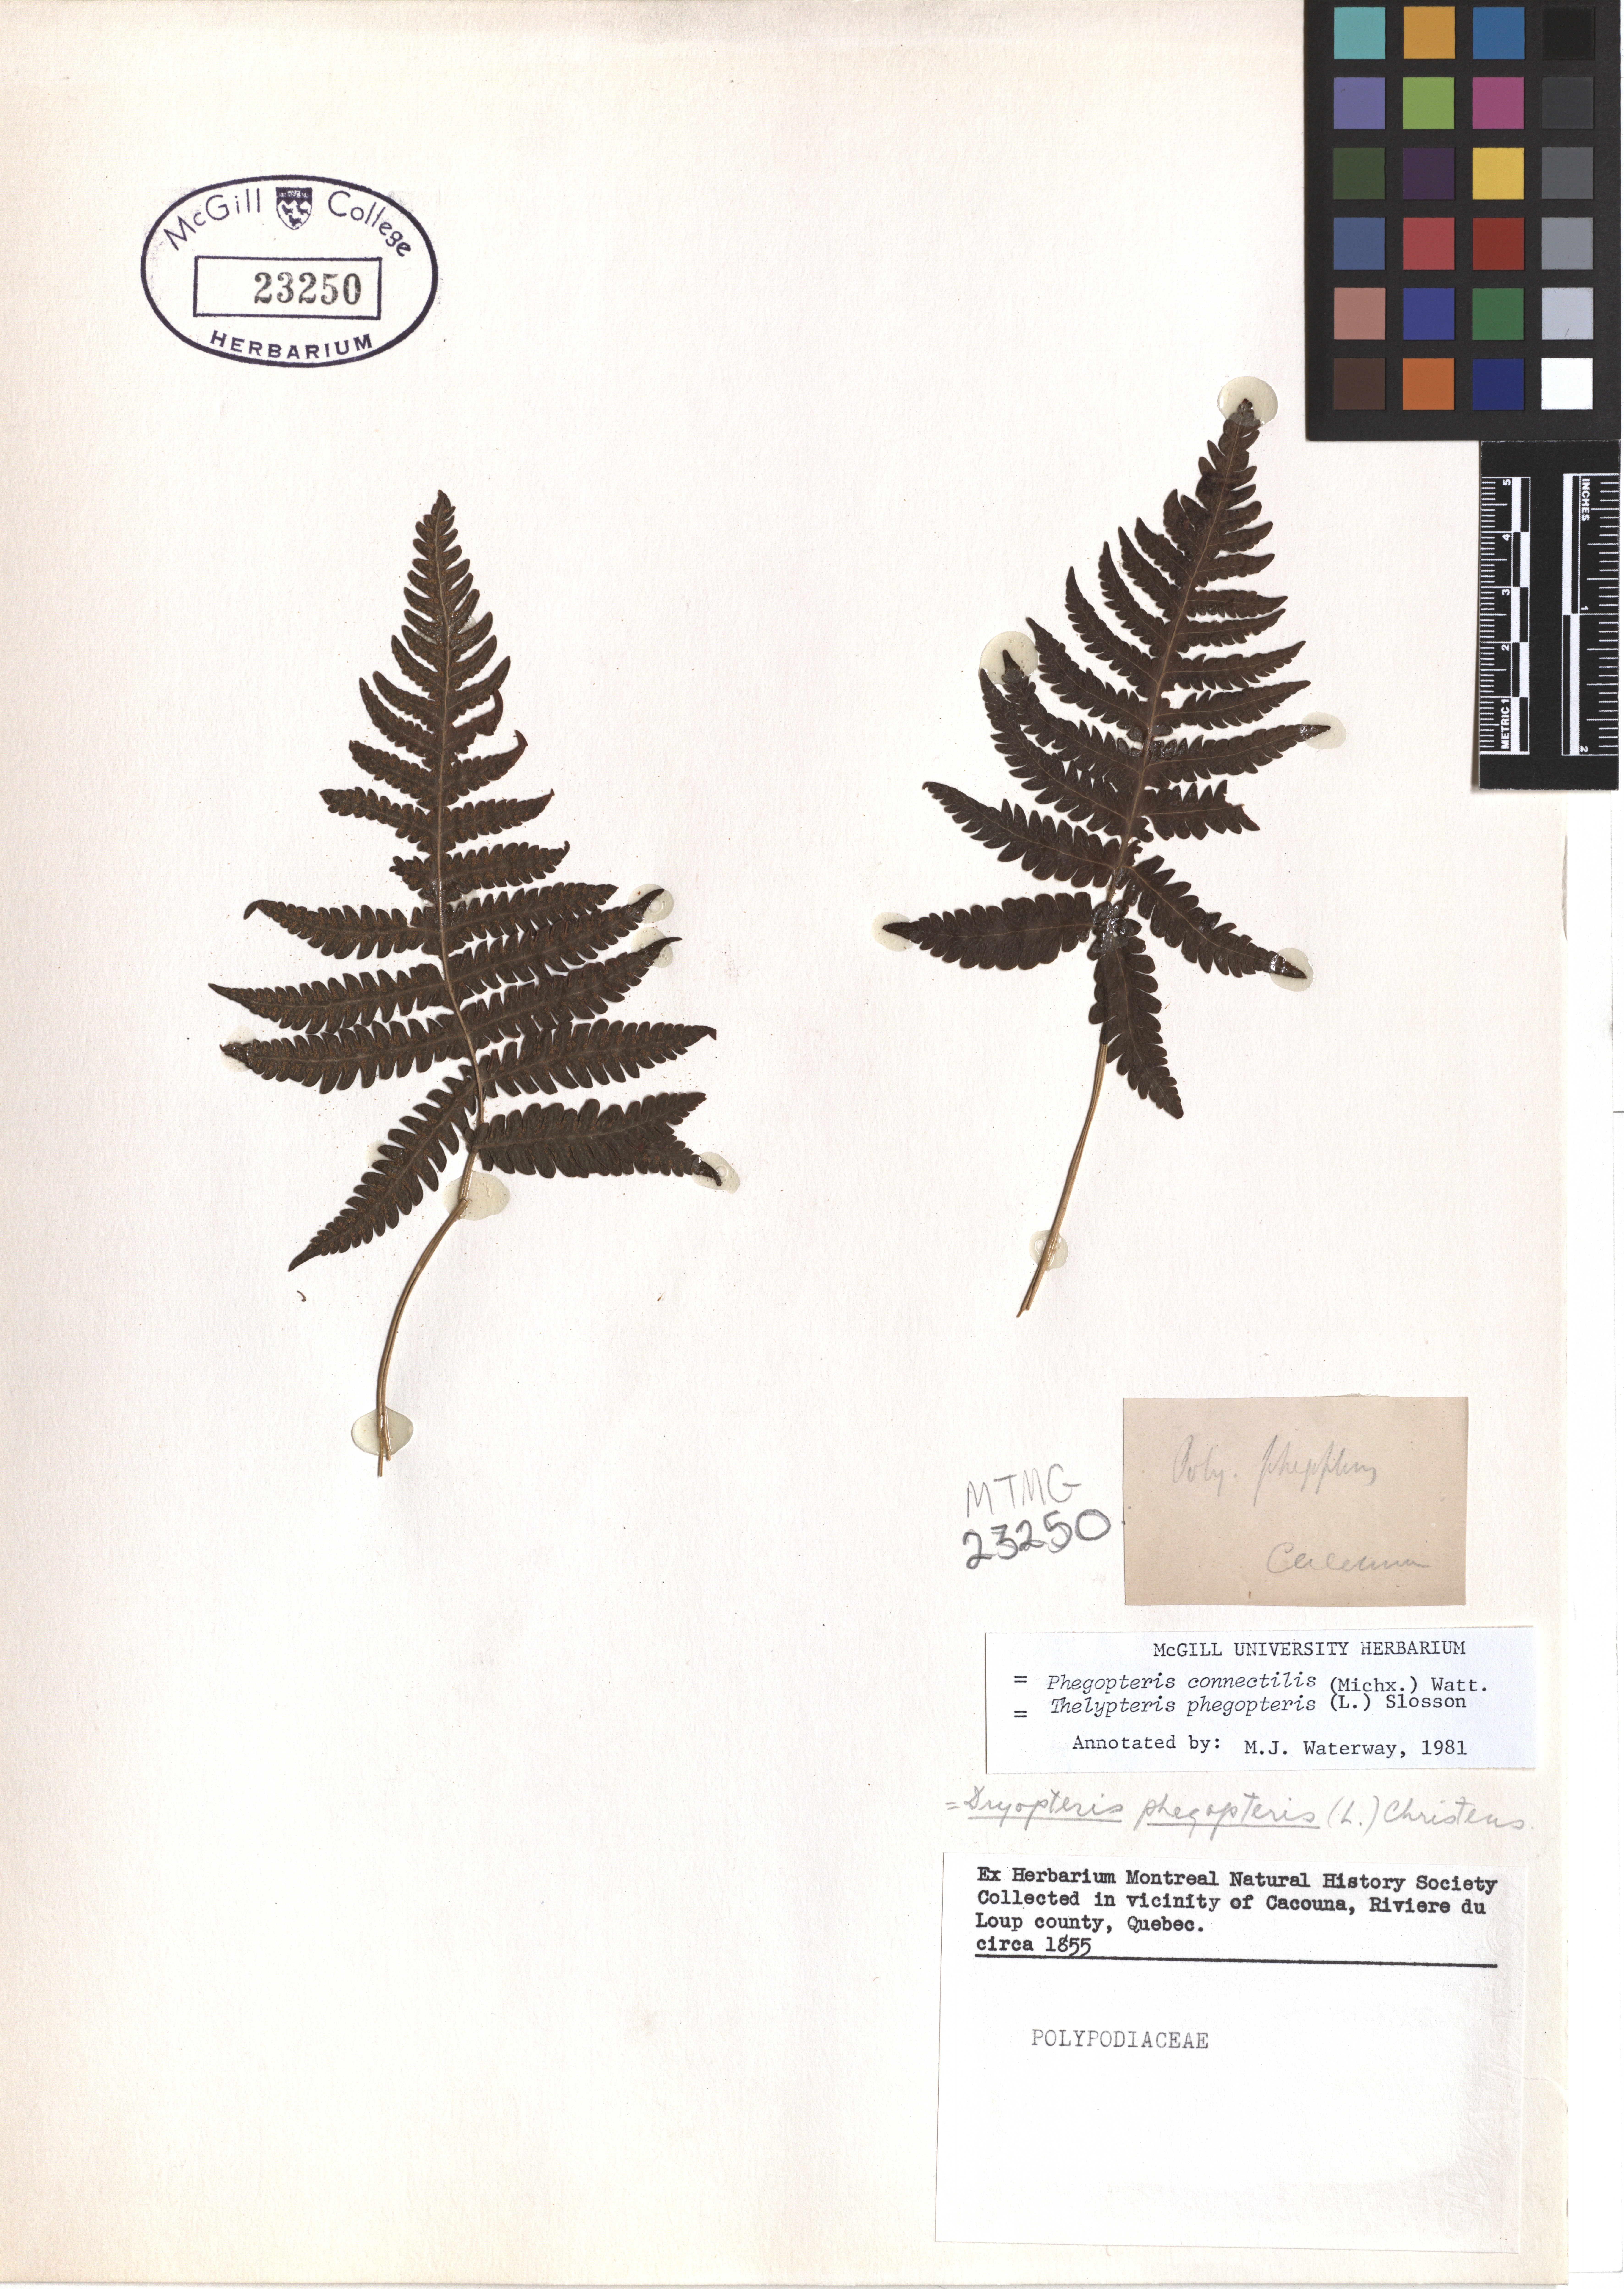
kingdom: Plantae
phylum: Tracheophyta
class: Polypodiopsida
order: Polypodiales
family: Thelypteridaceae
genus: Phegopteris
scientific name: Phegopteris connectilis
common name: Beech fern
